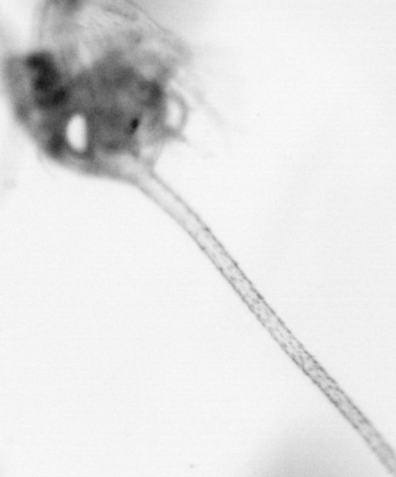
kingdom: Animalia
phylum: Arthropoda
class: Copepoda
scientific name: Copepoda
